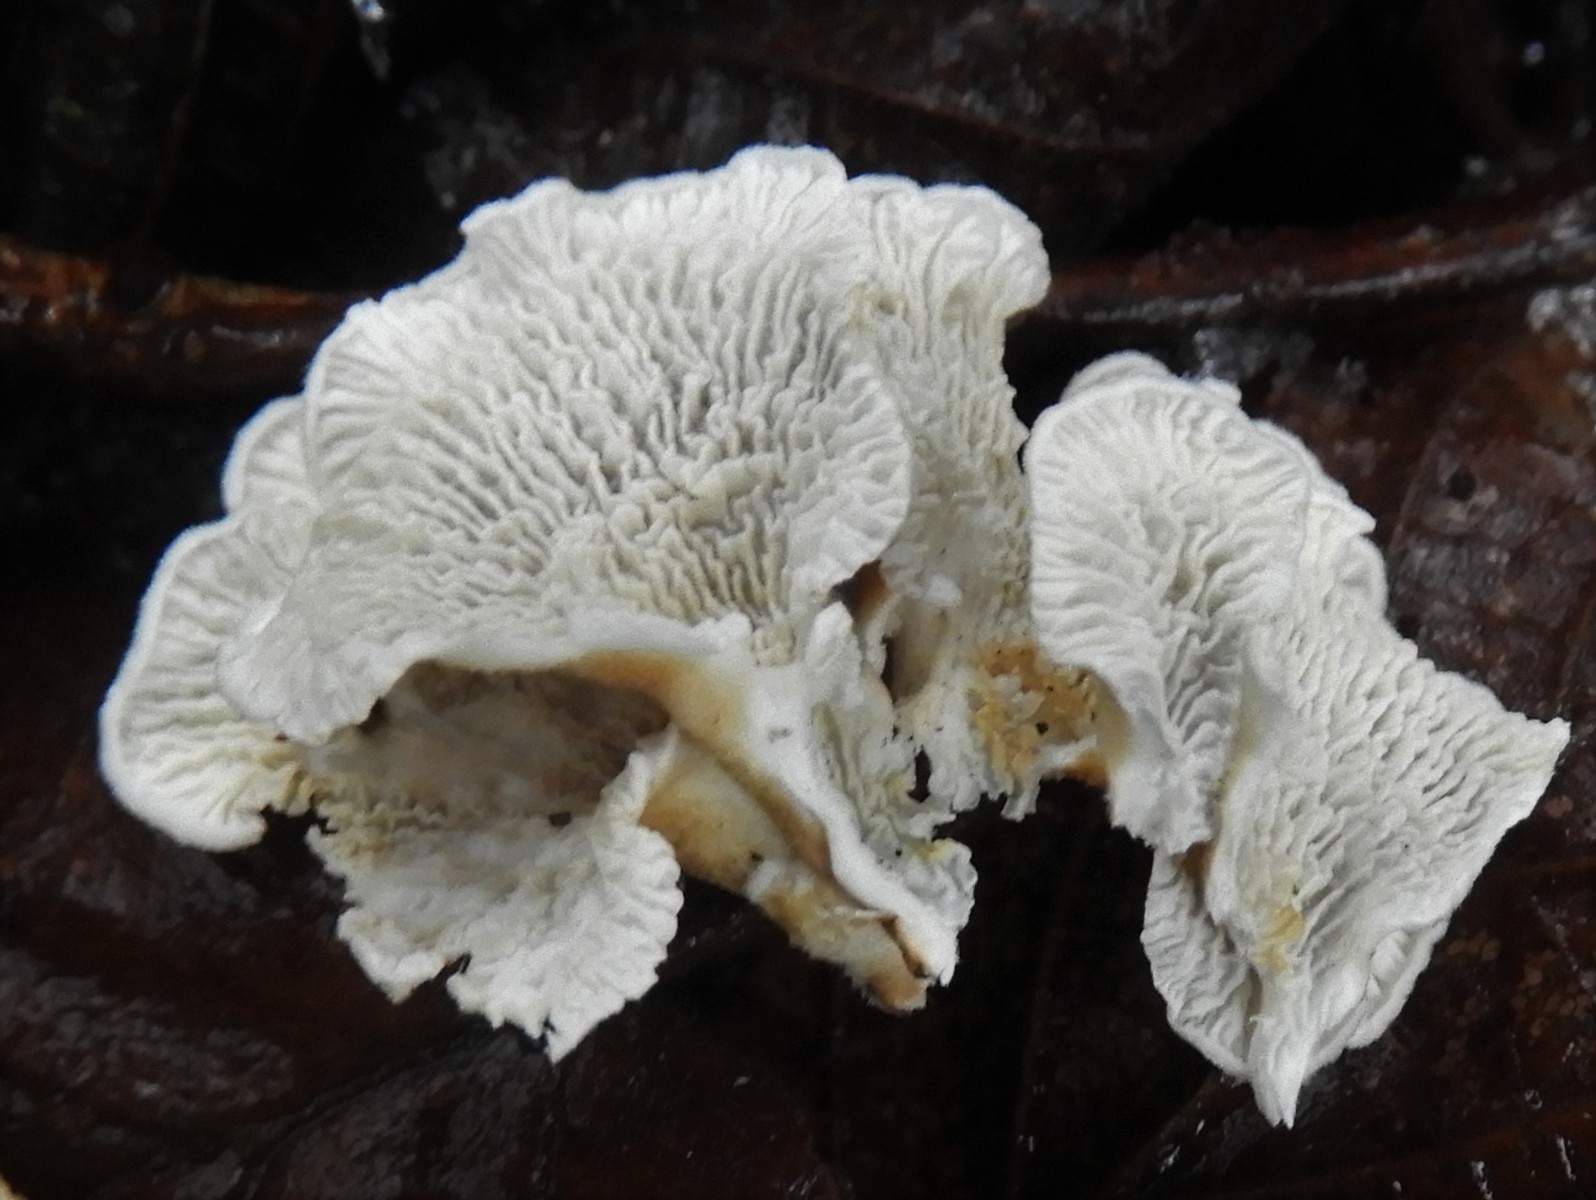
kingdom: Fungi
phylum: Basidiomycota
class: Agaricomycetes
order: Amylocorticiales
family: Amylocorticiaceae
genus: Plicaturopsis
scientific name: Plicaturopsis crispa
